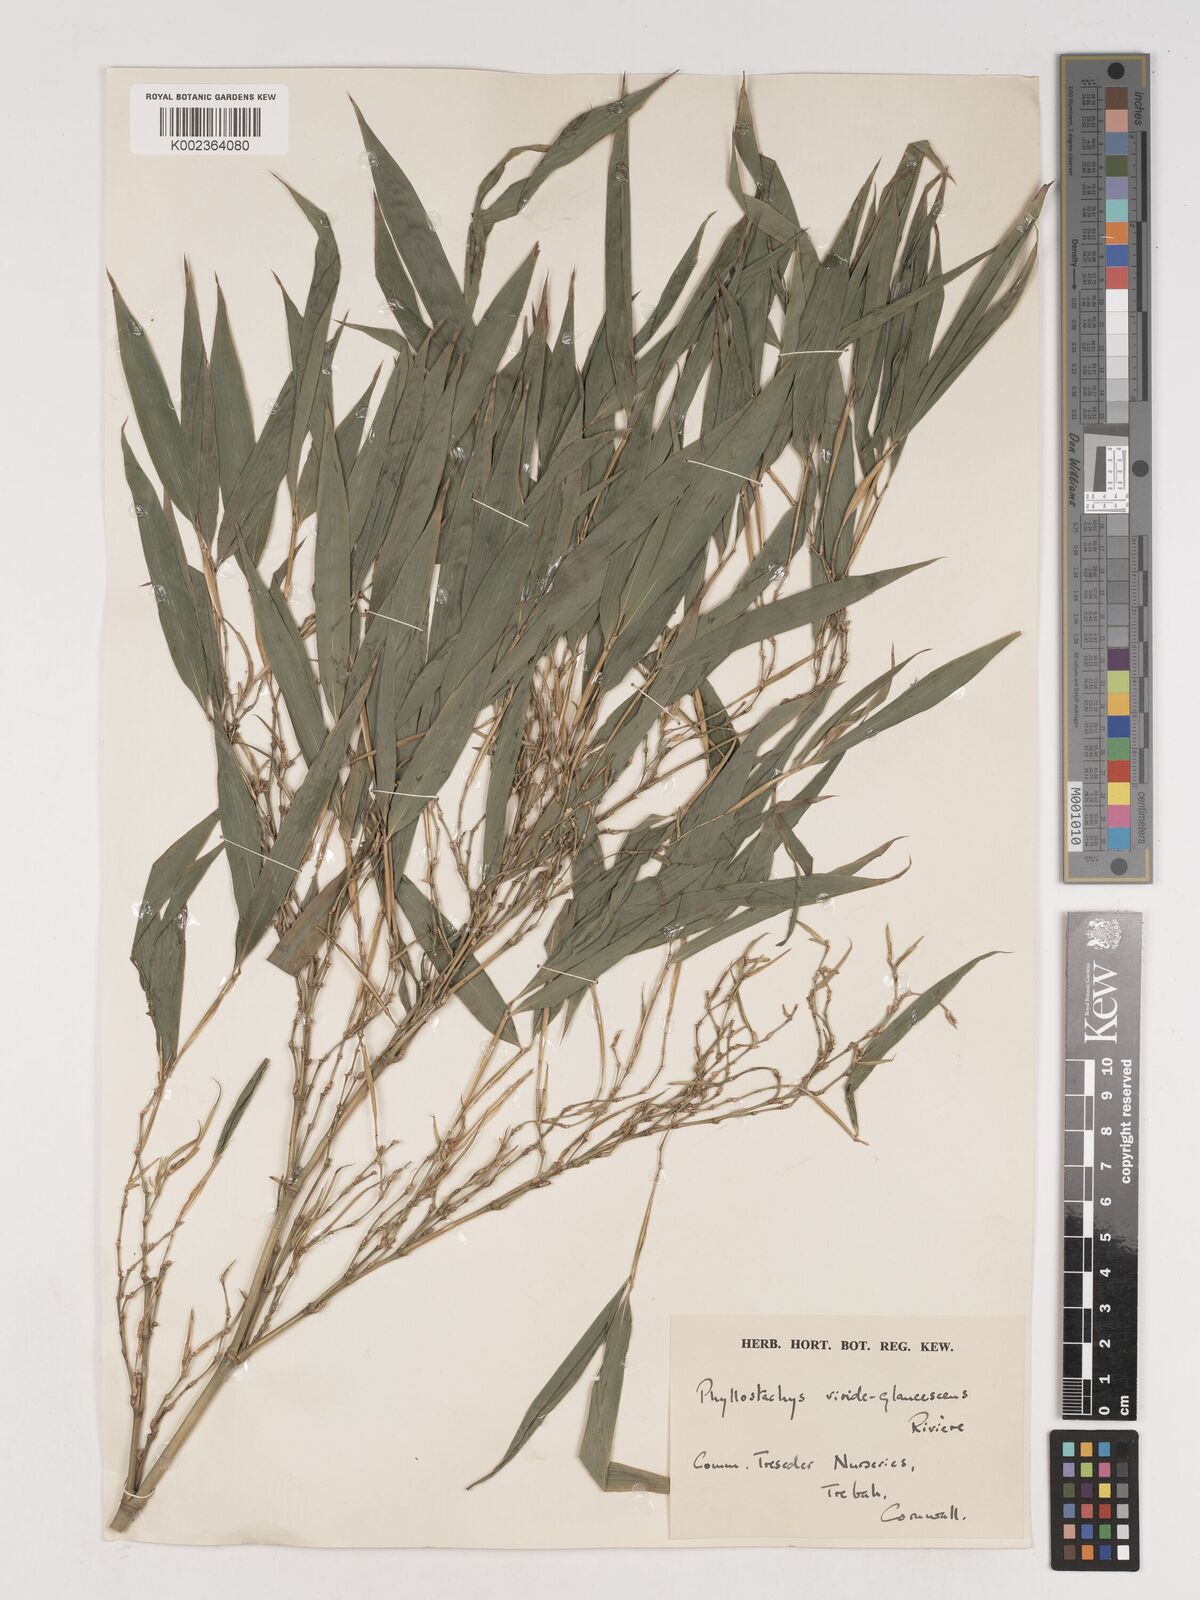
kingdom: Plantae
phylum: Tracheophyta
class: Liliopsida
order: Poales
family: Poaceae
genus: Phyllostachys
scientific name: Phyllostachys viridiglaucescens
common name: Greenwax golden bamboo
